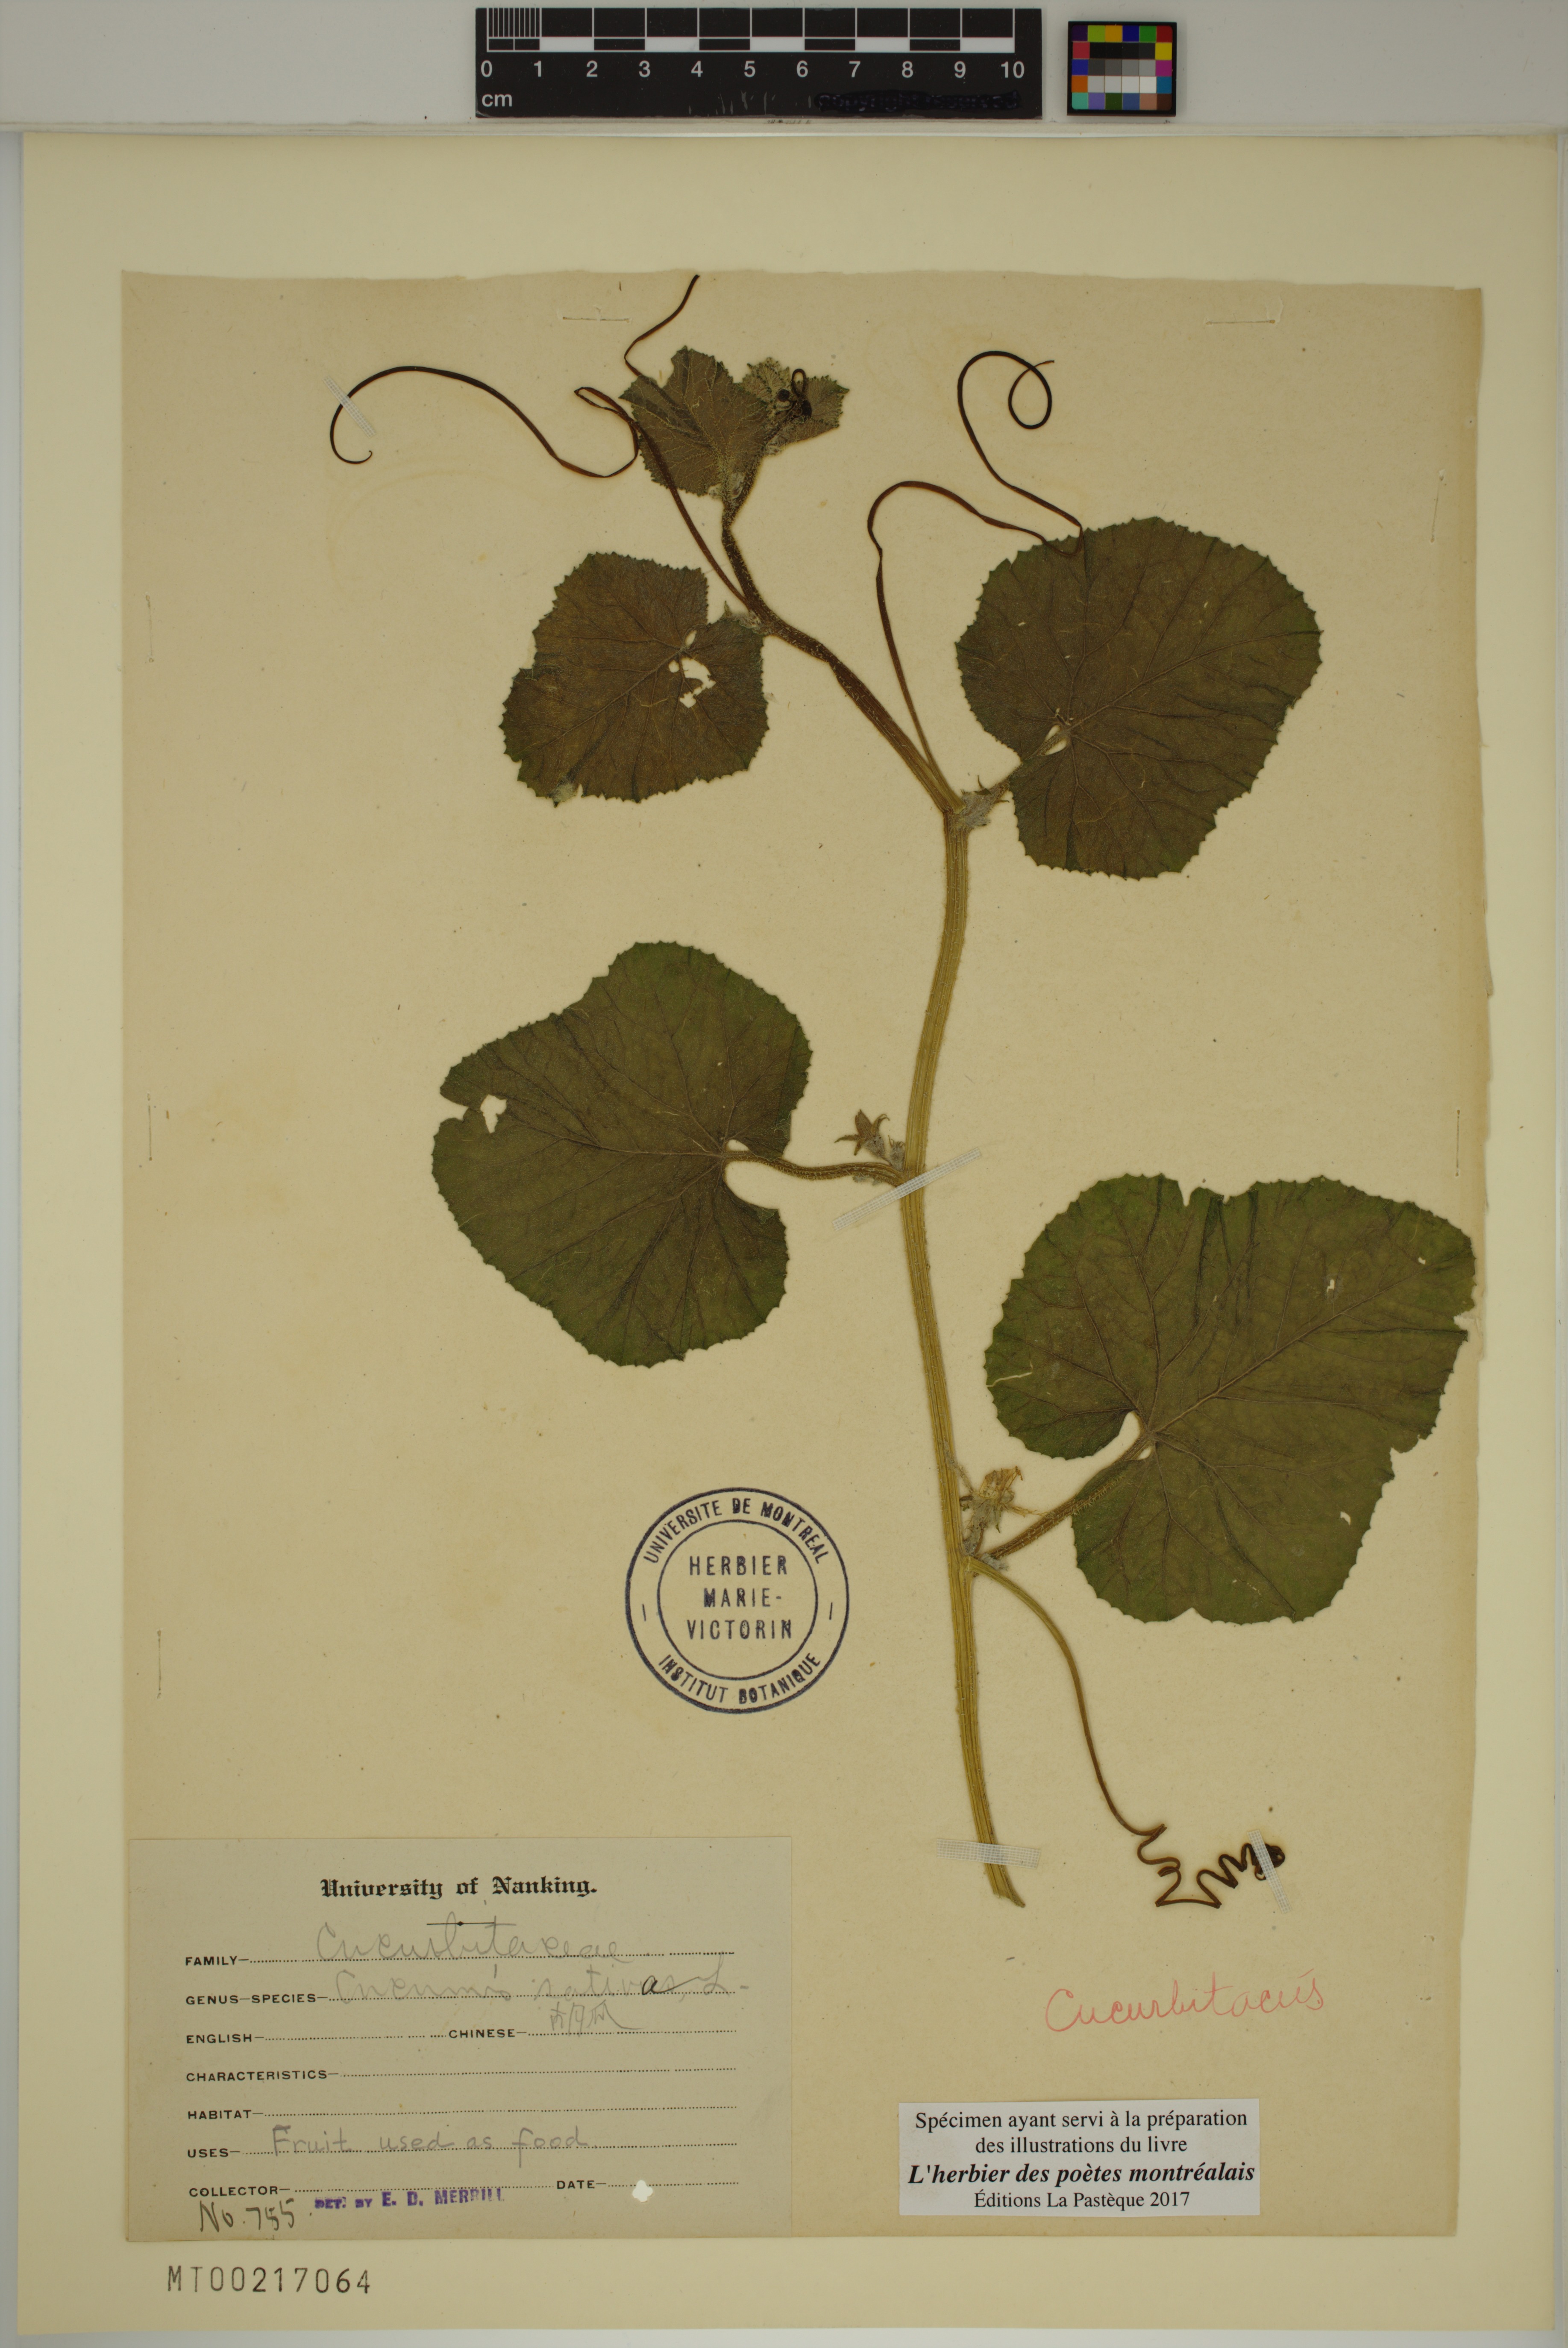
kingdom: Plantae
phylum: Tracheophyta
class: Magnoliopsida
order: Cucurbitales
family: Cucurbitaceae
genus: Cucumis
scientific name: Cucumis sativus
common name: Cucumber
